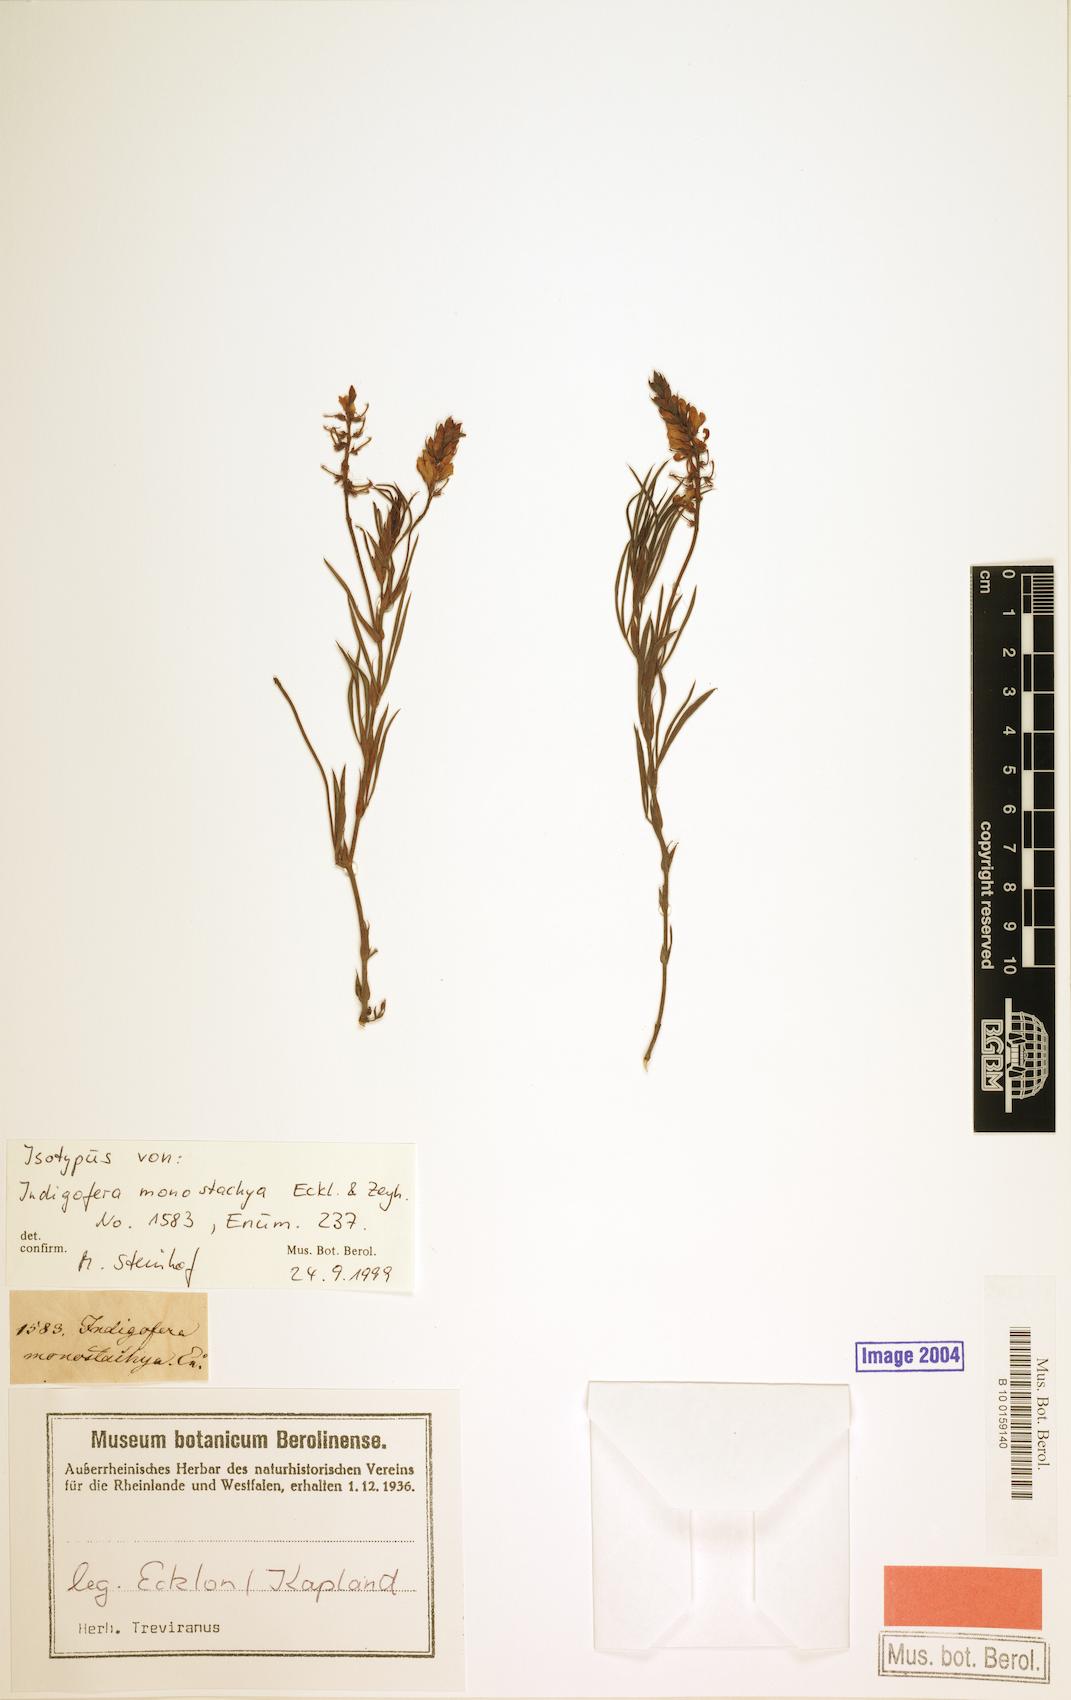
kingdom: Plantae
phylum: Tracheophyta
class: Magnoliopsida
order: Fabales
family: Fabaceae
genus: Indigofera
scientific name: Indigofera monostachya
